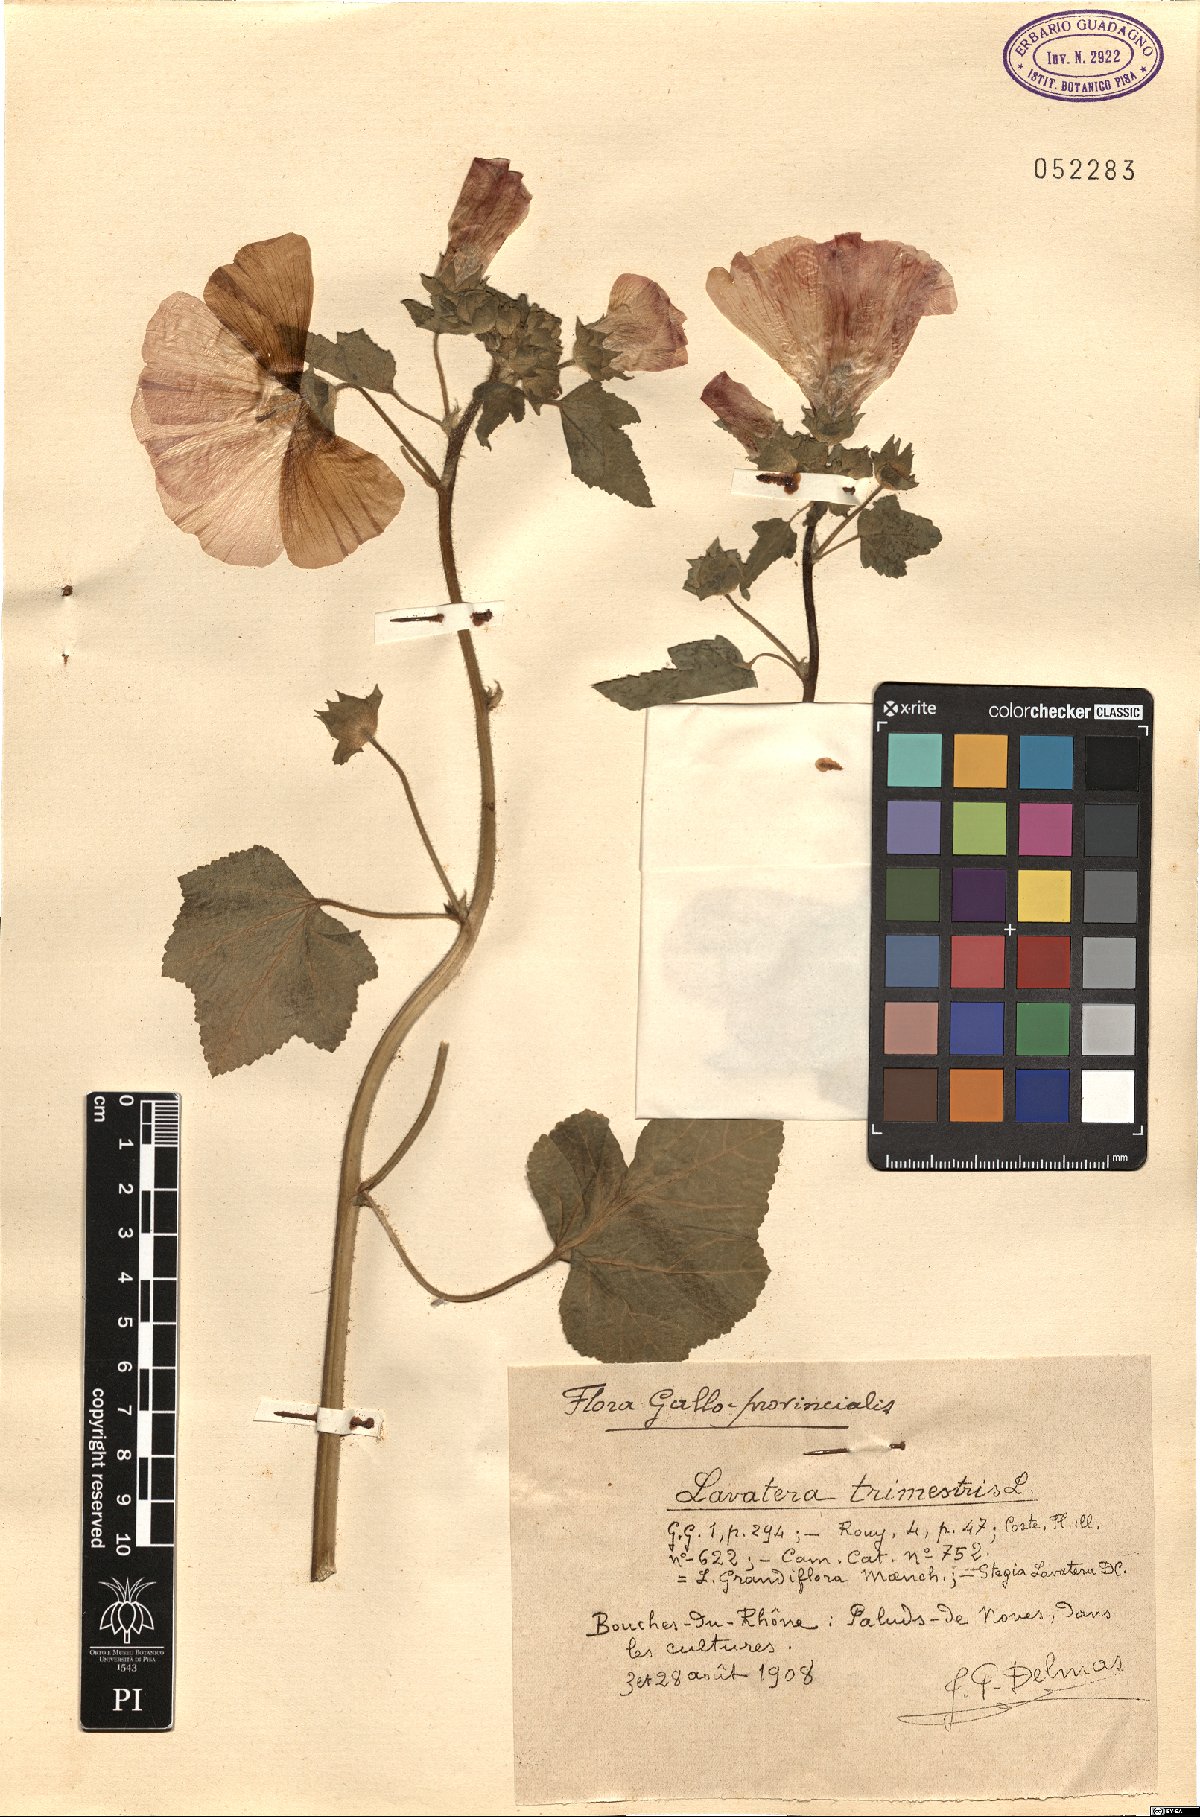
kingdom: Plantae
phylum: Tracheophyta
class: Magnoliopsida
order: Malvales
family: Malvaceae
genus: Malva
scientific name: Malva trimestris
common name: Royal mallow
